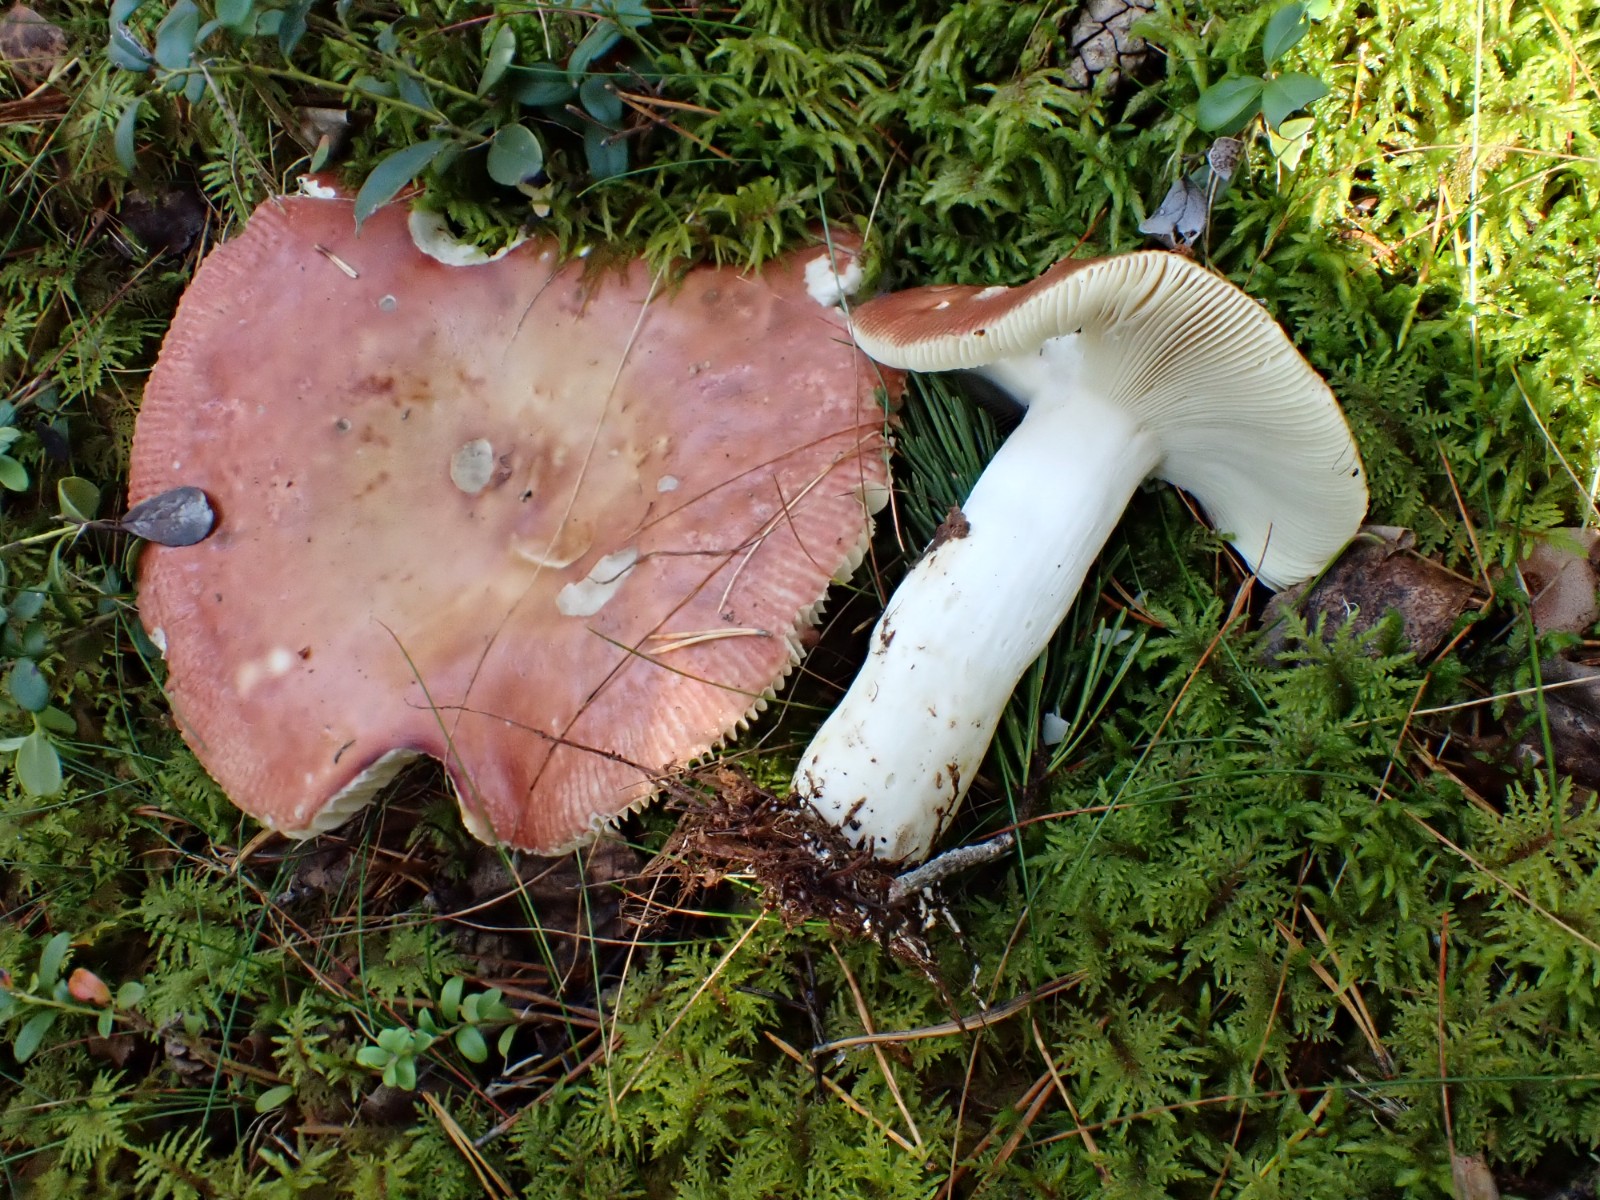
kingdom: Fungi
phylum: Basidiomycota
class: Agaricomycetes
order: Russulales
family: Russulaceae
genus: Russula
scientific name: Russula
